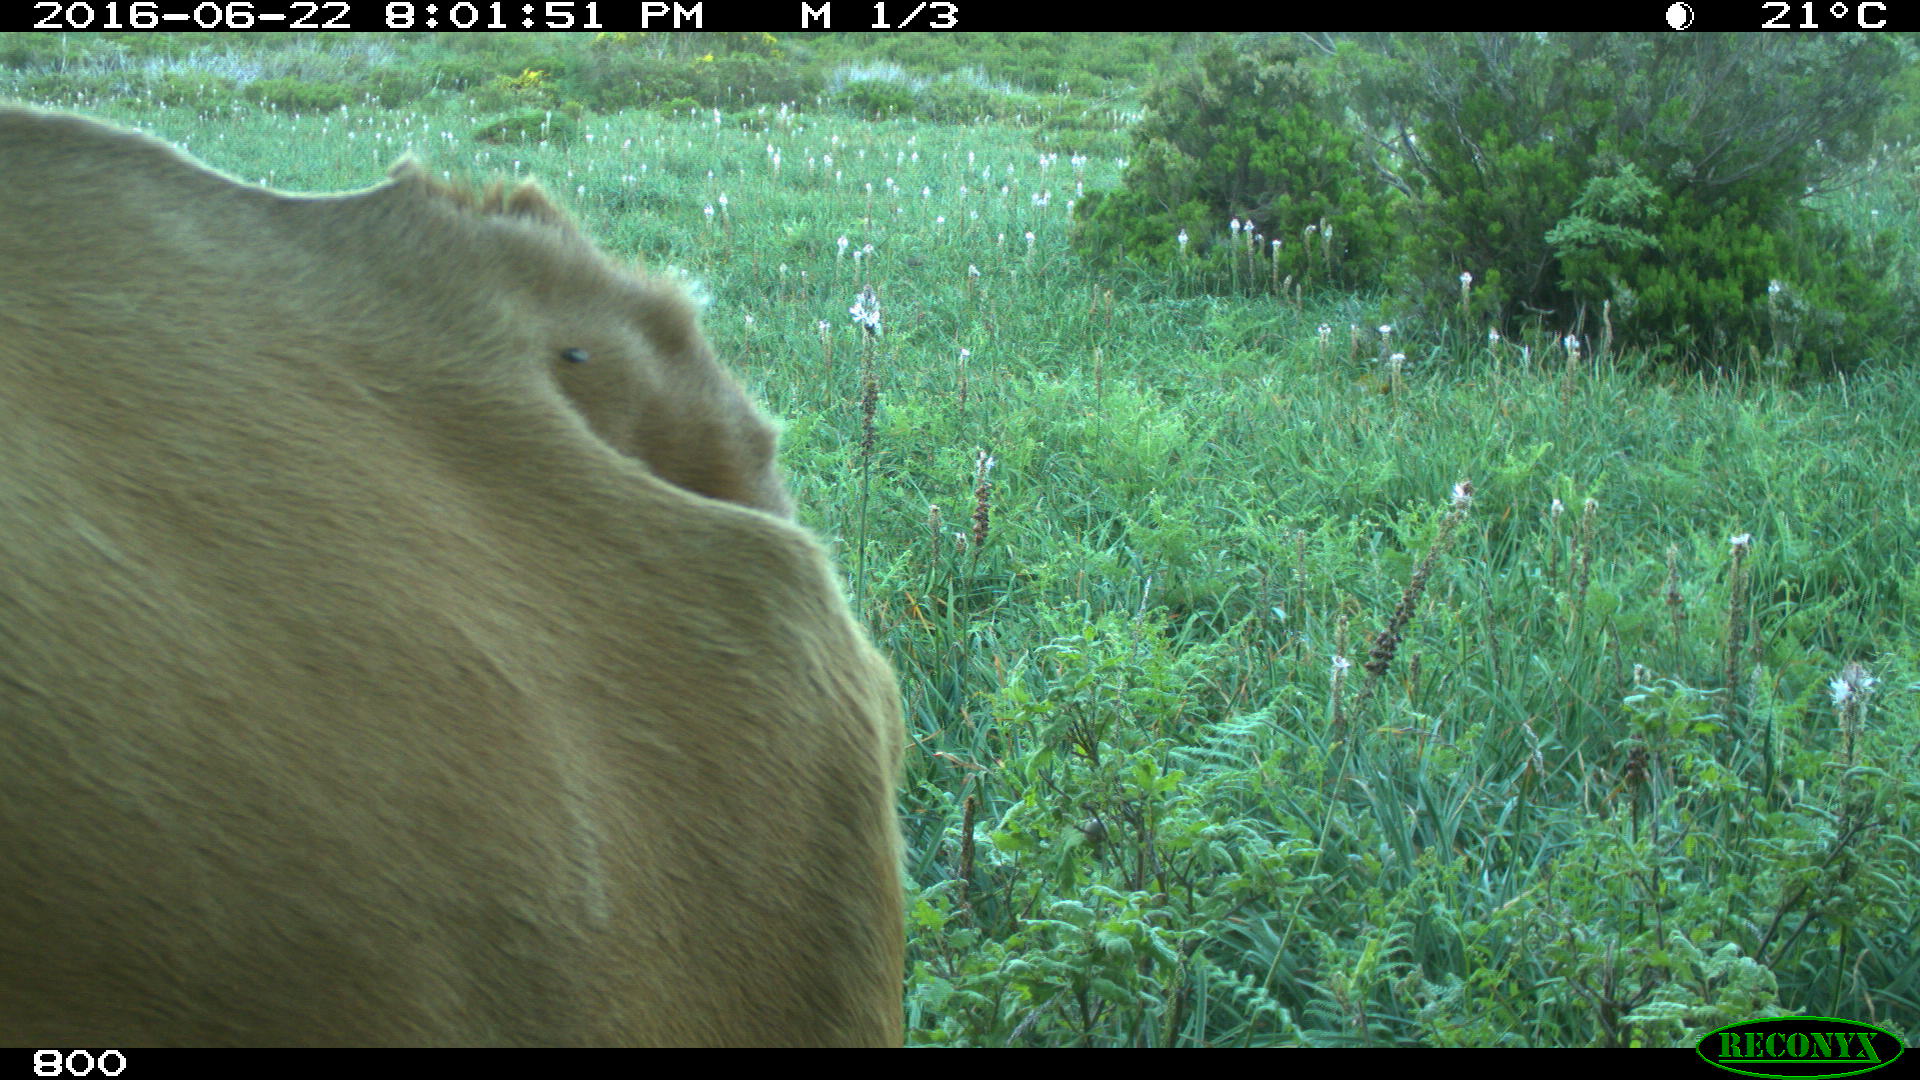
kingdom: Animalia
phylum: Chordata
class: Mammalia
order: Artiodactyla
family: Bovidae
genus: Bos
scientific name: Bos taurus
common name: Domesticated cattle
